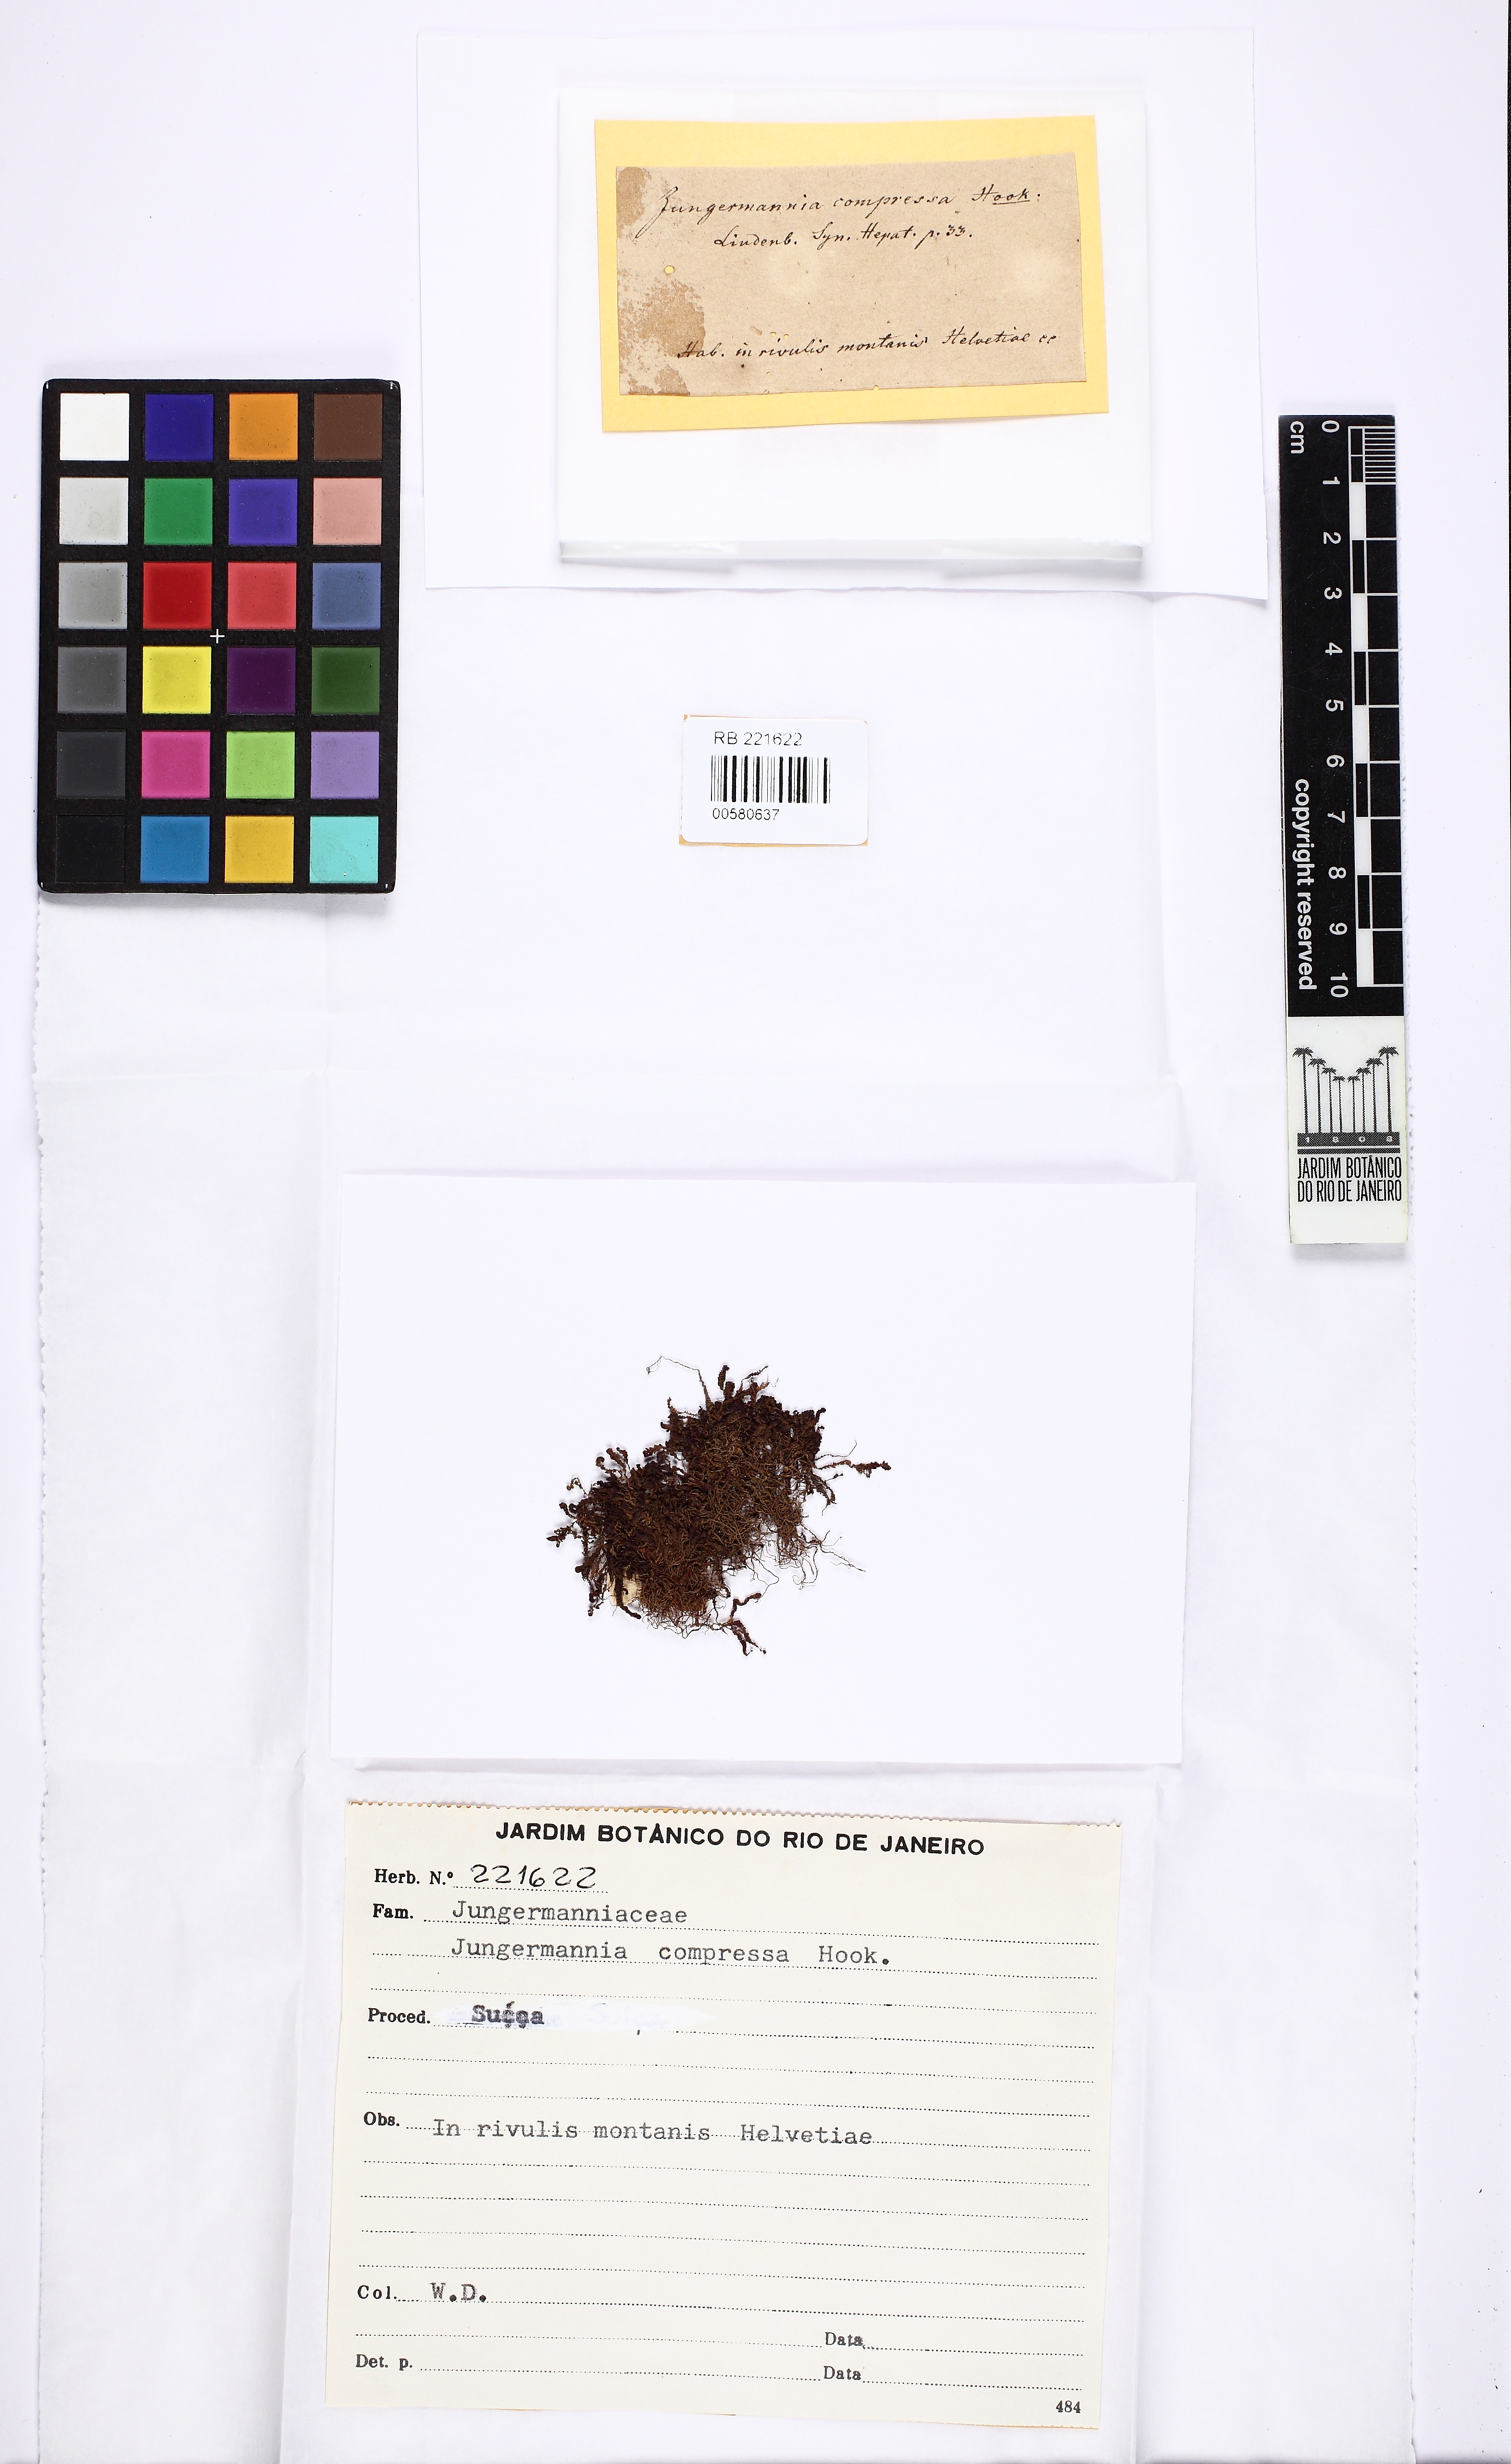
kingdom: Plantae
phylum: Marchantiophyta
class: Jungermanniopsida
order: Jungermanniales
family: Gymnomitriaceae
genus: Nardia
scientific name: Nardia compressa
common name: Compressed flapwort
